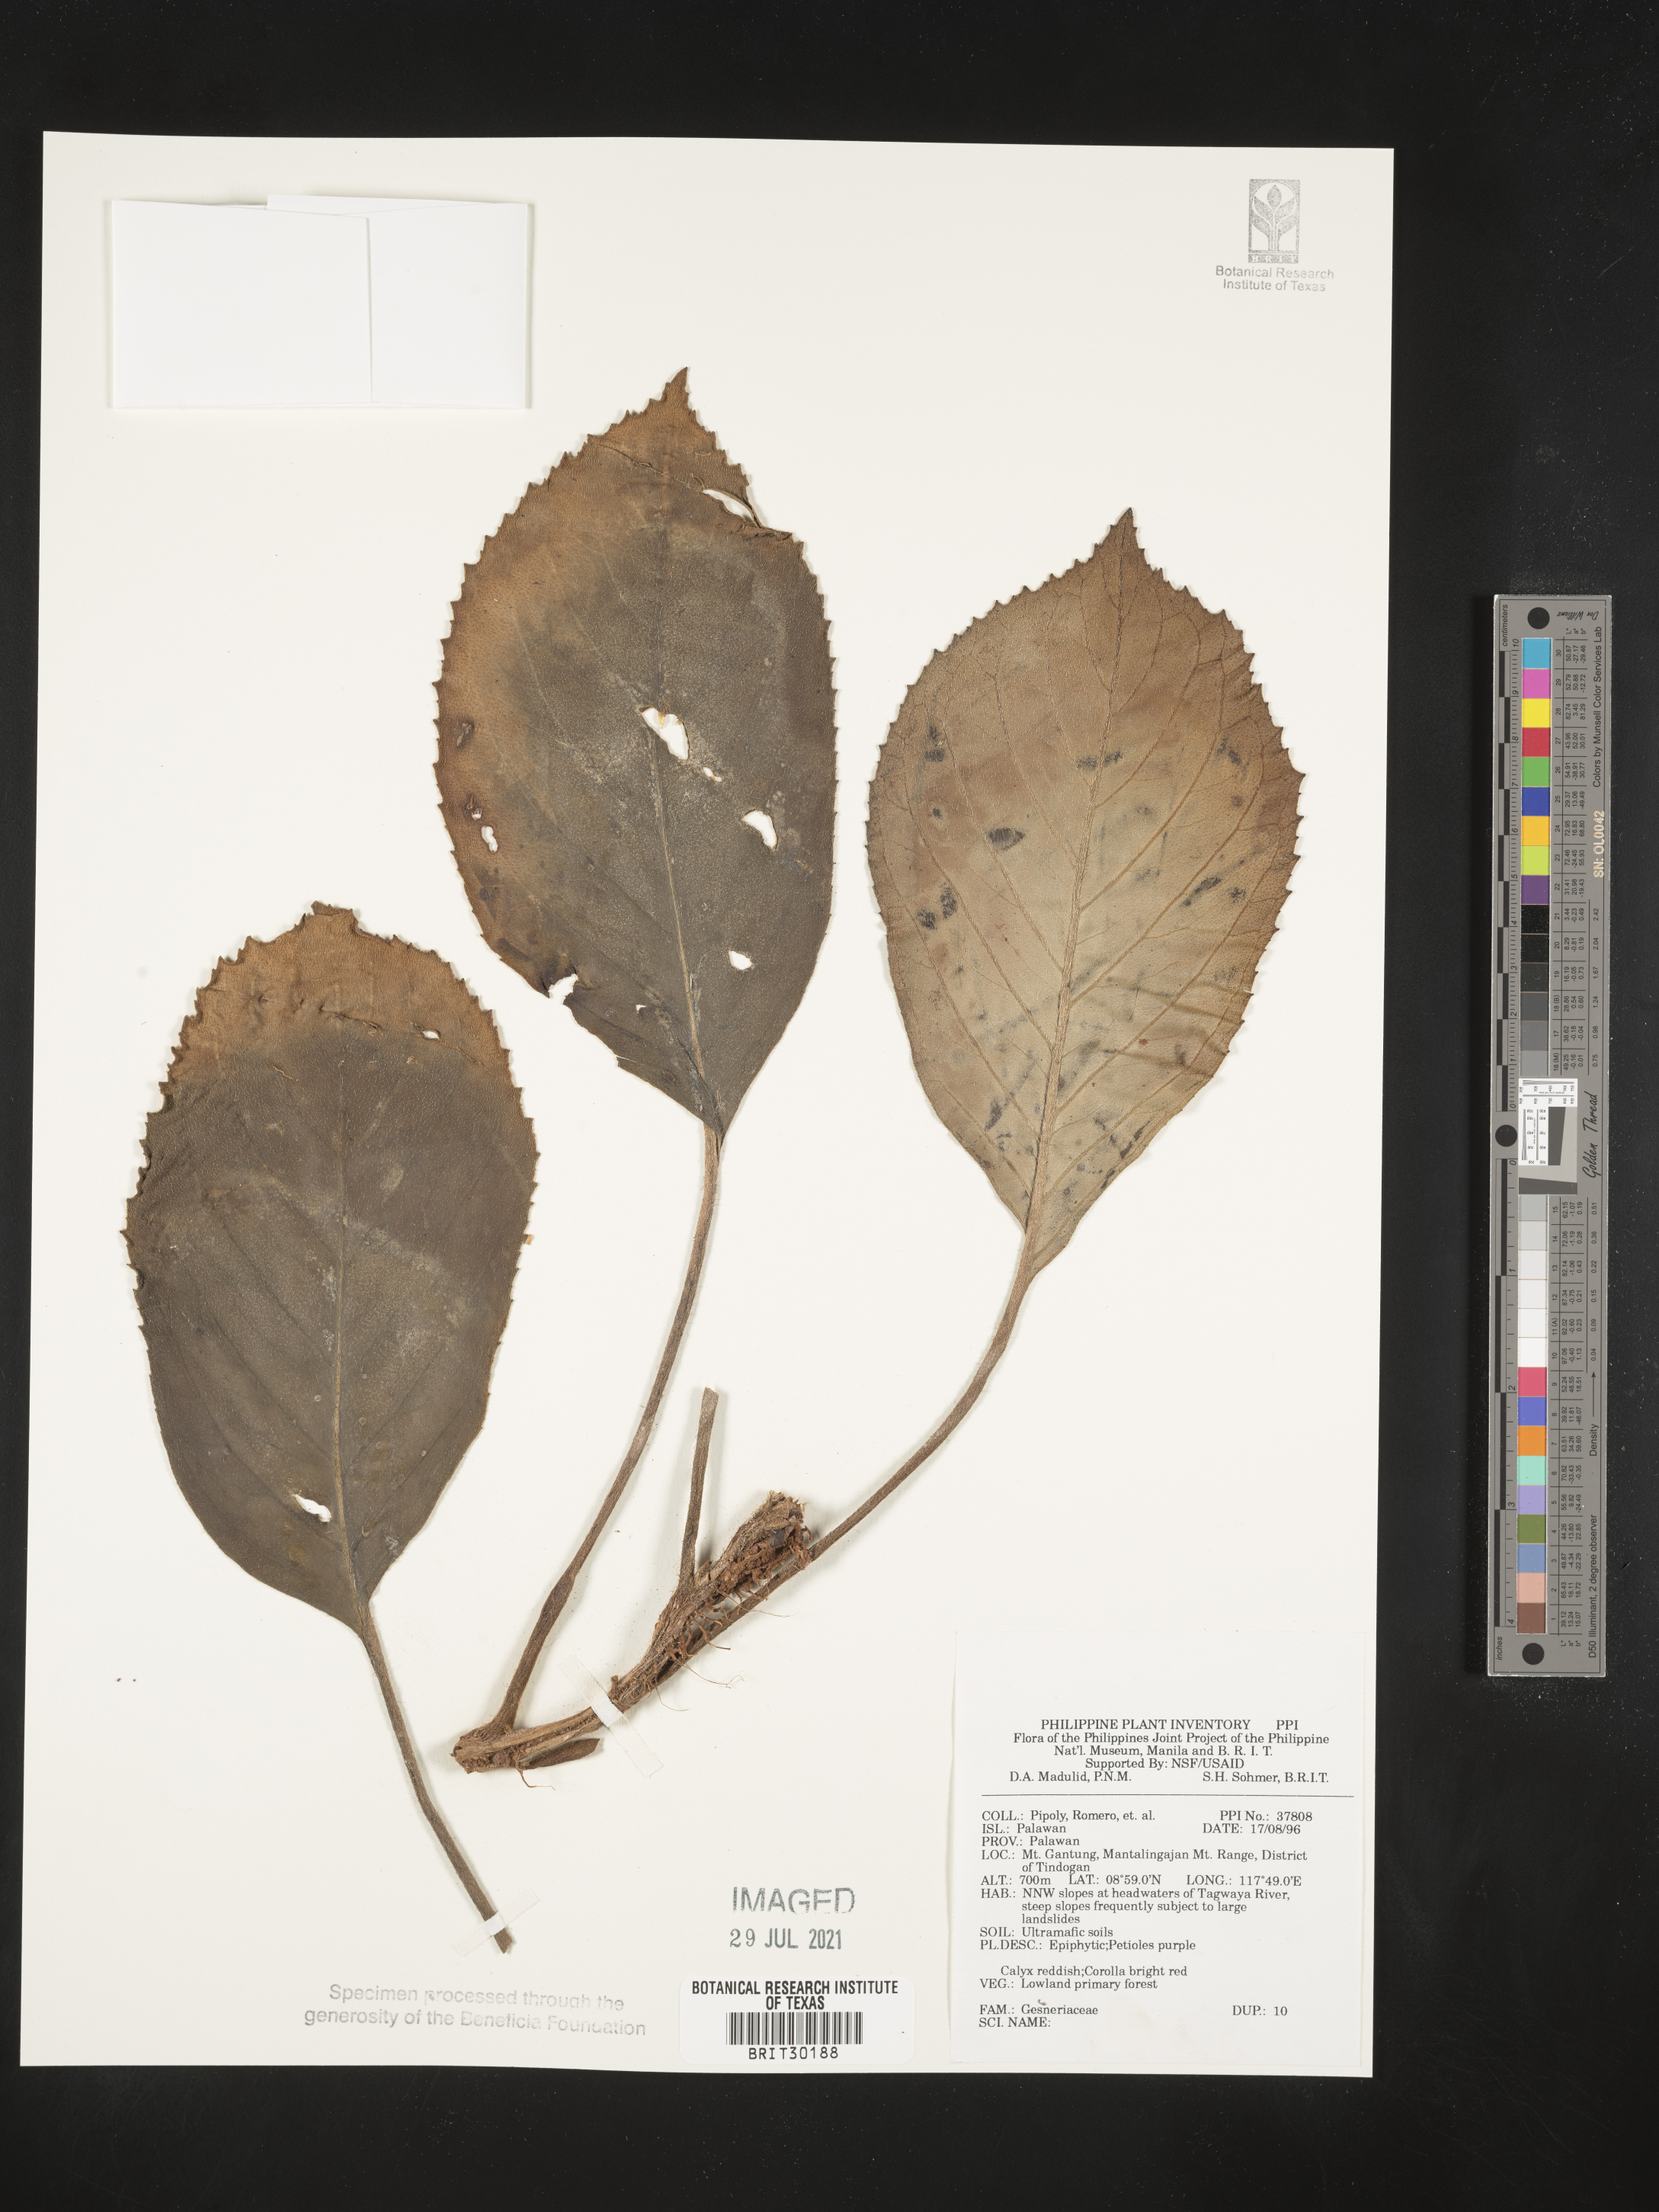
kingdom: Plantae
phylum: Tracheophyta
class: Magnoliopsida
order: Lamiales
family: Gesneriaceae
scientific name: Gesneriaceae
